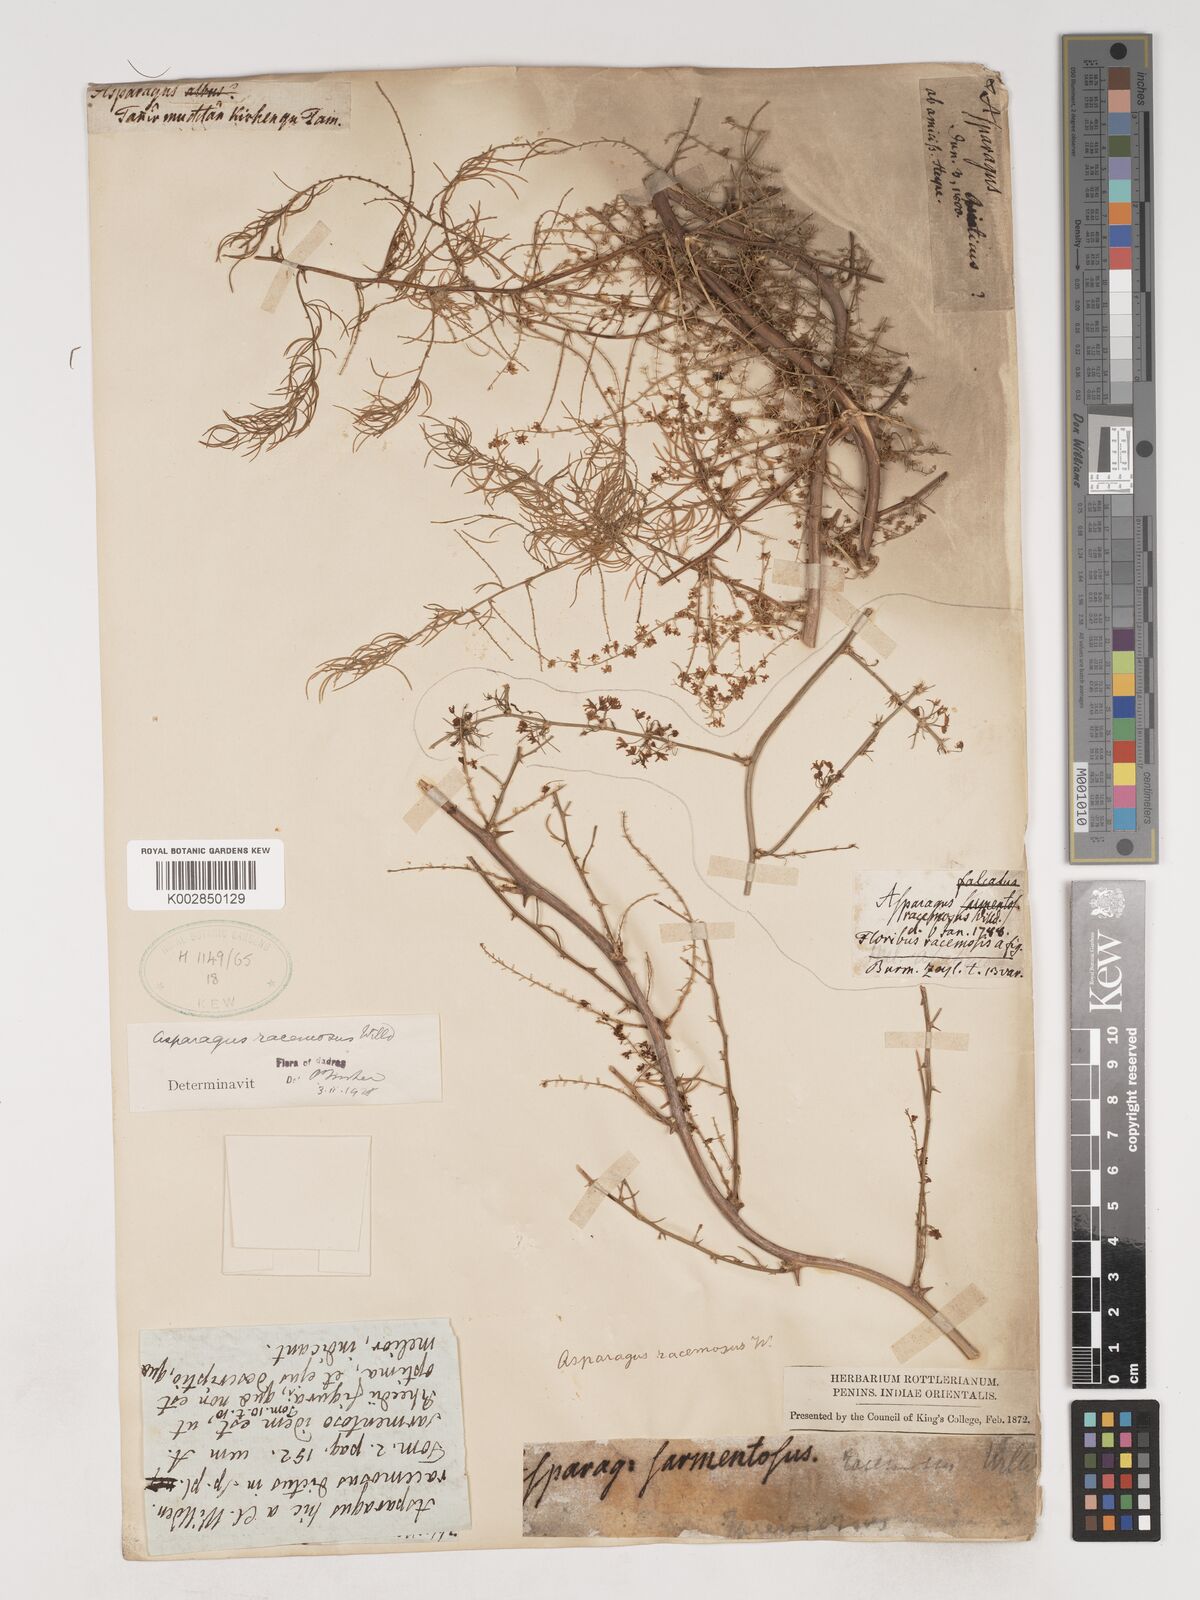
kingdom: Plantae
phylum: Tracheophyta
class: Liliopsida
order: Asparagales
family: Asparagaceae
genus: Asparagus
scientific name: Asparagus racemosus
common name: Asparagus-fern
